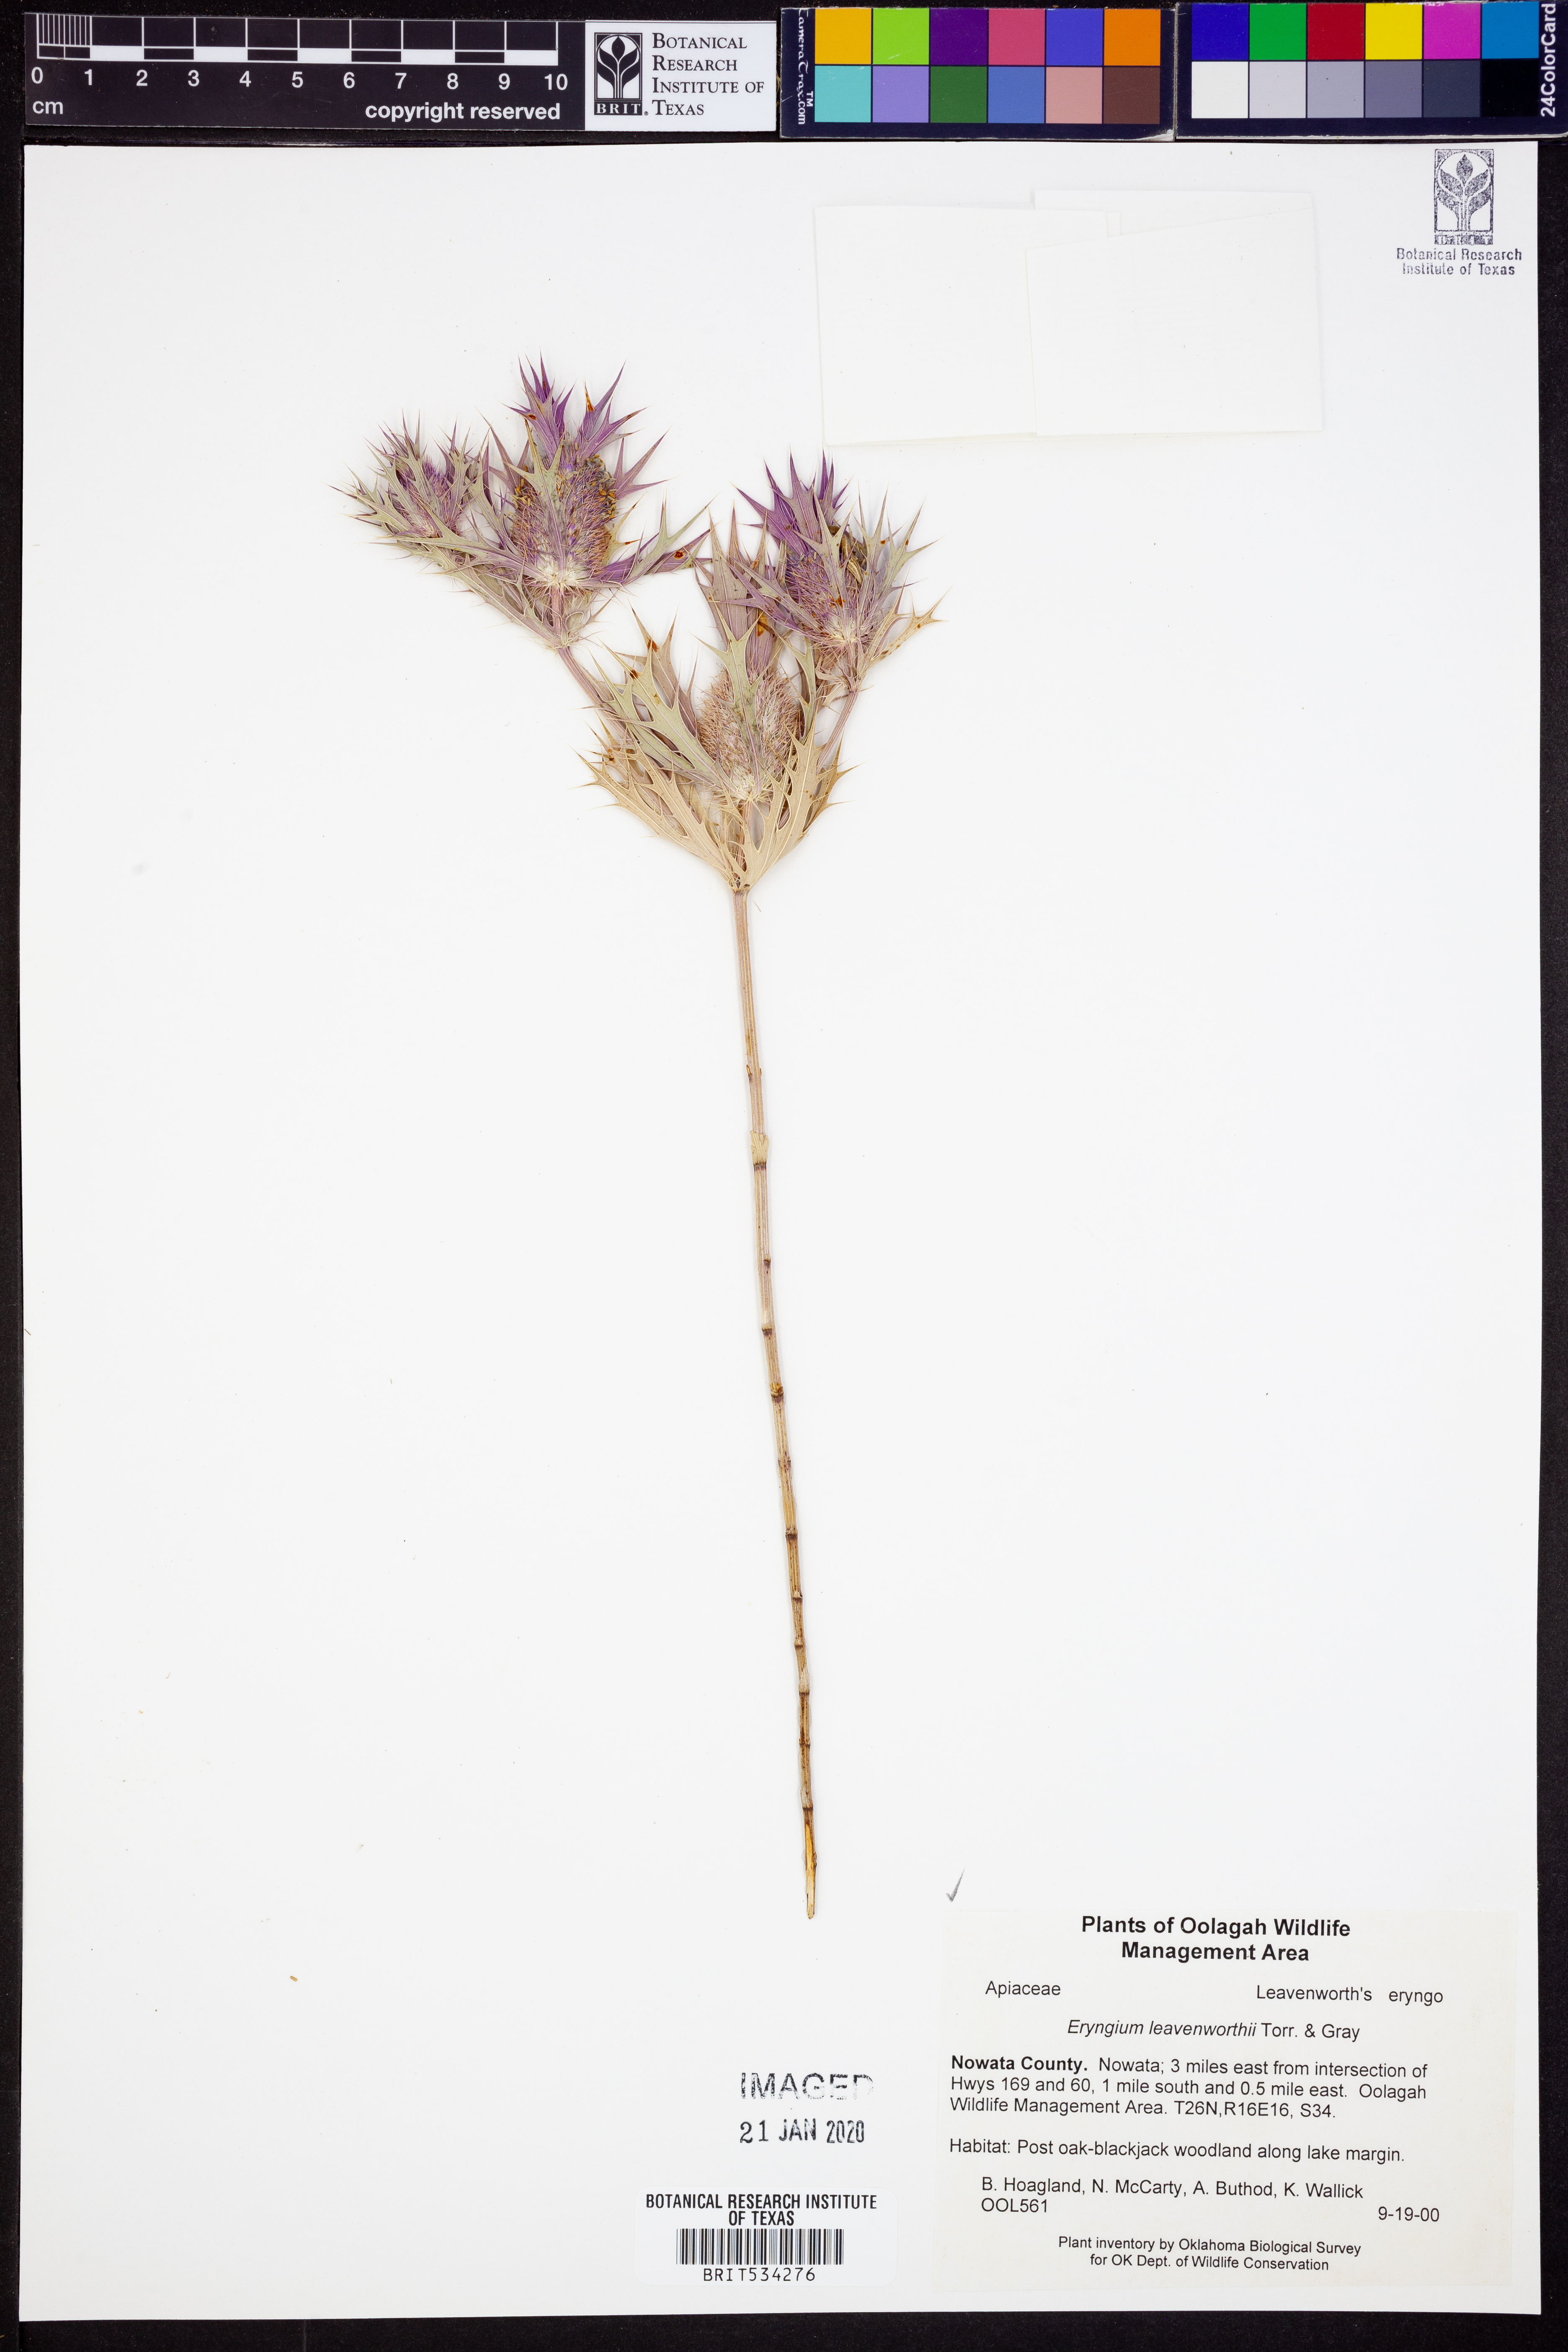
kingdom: Plantae
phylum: Tracheophyta
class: Magnoliopsida
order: Apiales
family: Apiaceae
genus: Eryngium
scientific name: Eryngium leavenworthii
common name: Leavenworth's eryngo
